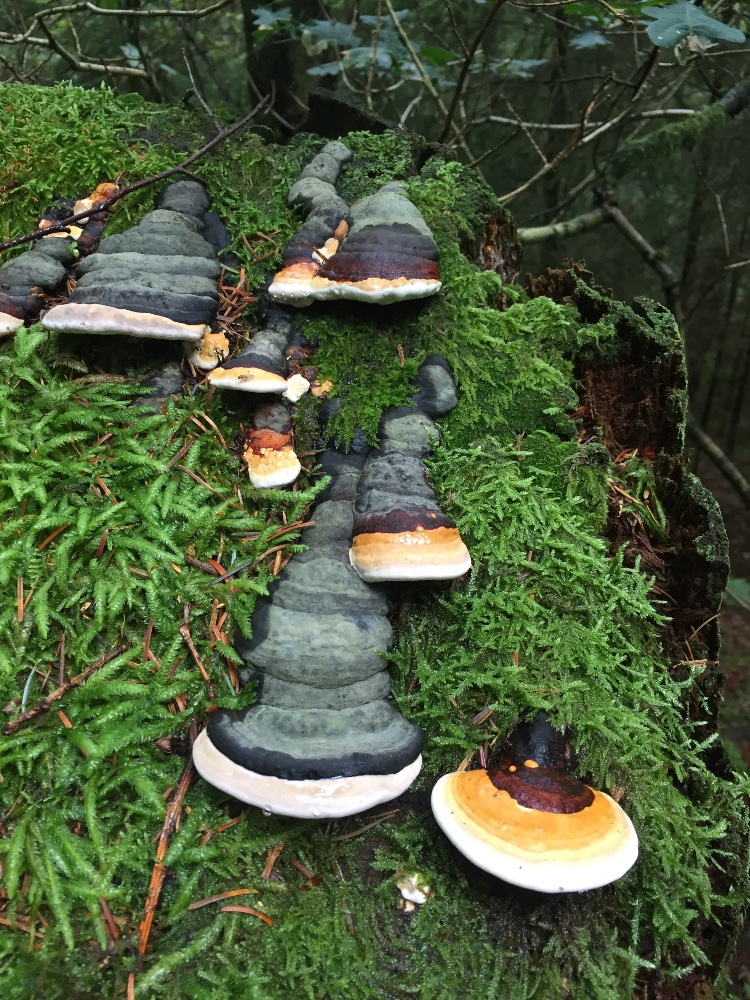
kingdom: Fungi
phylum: Basidiomycota
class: Agaricomycetes
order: Polyporales
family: Fomitopsidaceae
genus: Fomitopsis
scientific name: Fomitopsis pinicola
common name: randbæltet hovporesvamp
